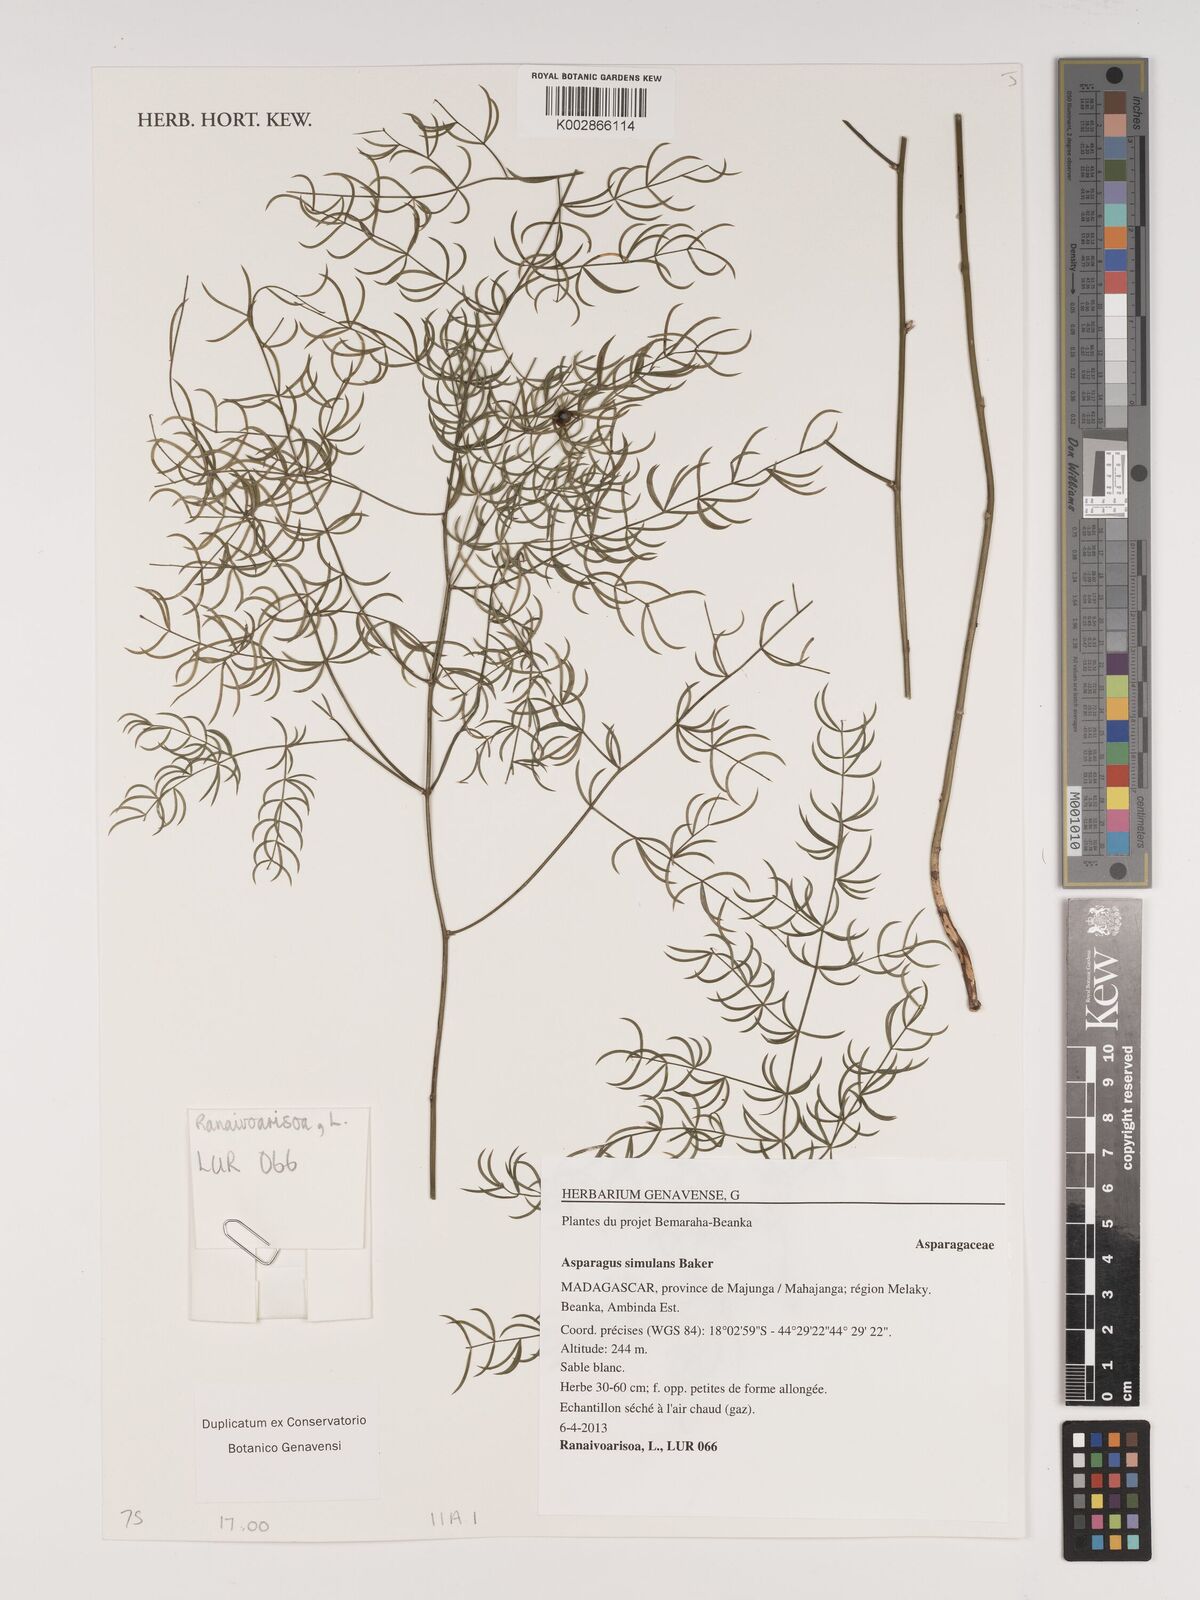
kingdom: Plantae
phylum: Tracheophyta
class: Liliopsida
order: Asparagales
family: Asparagaceae
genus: Asparagus
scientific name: Asparagus simulans
